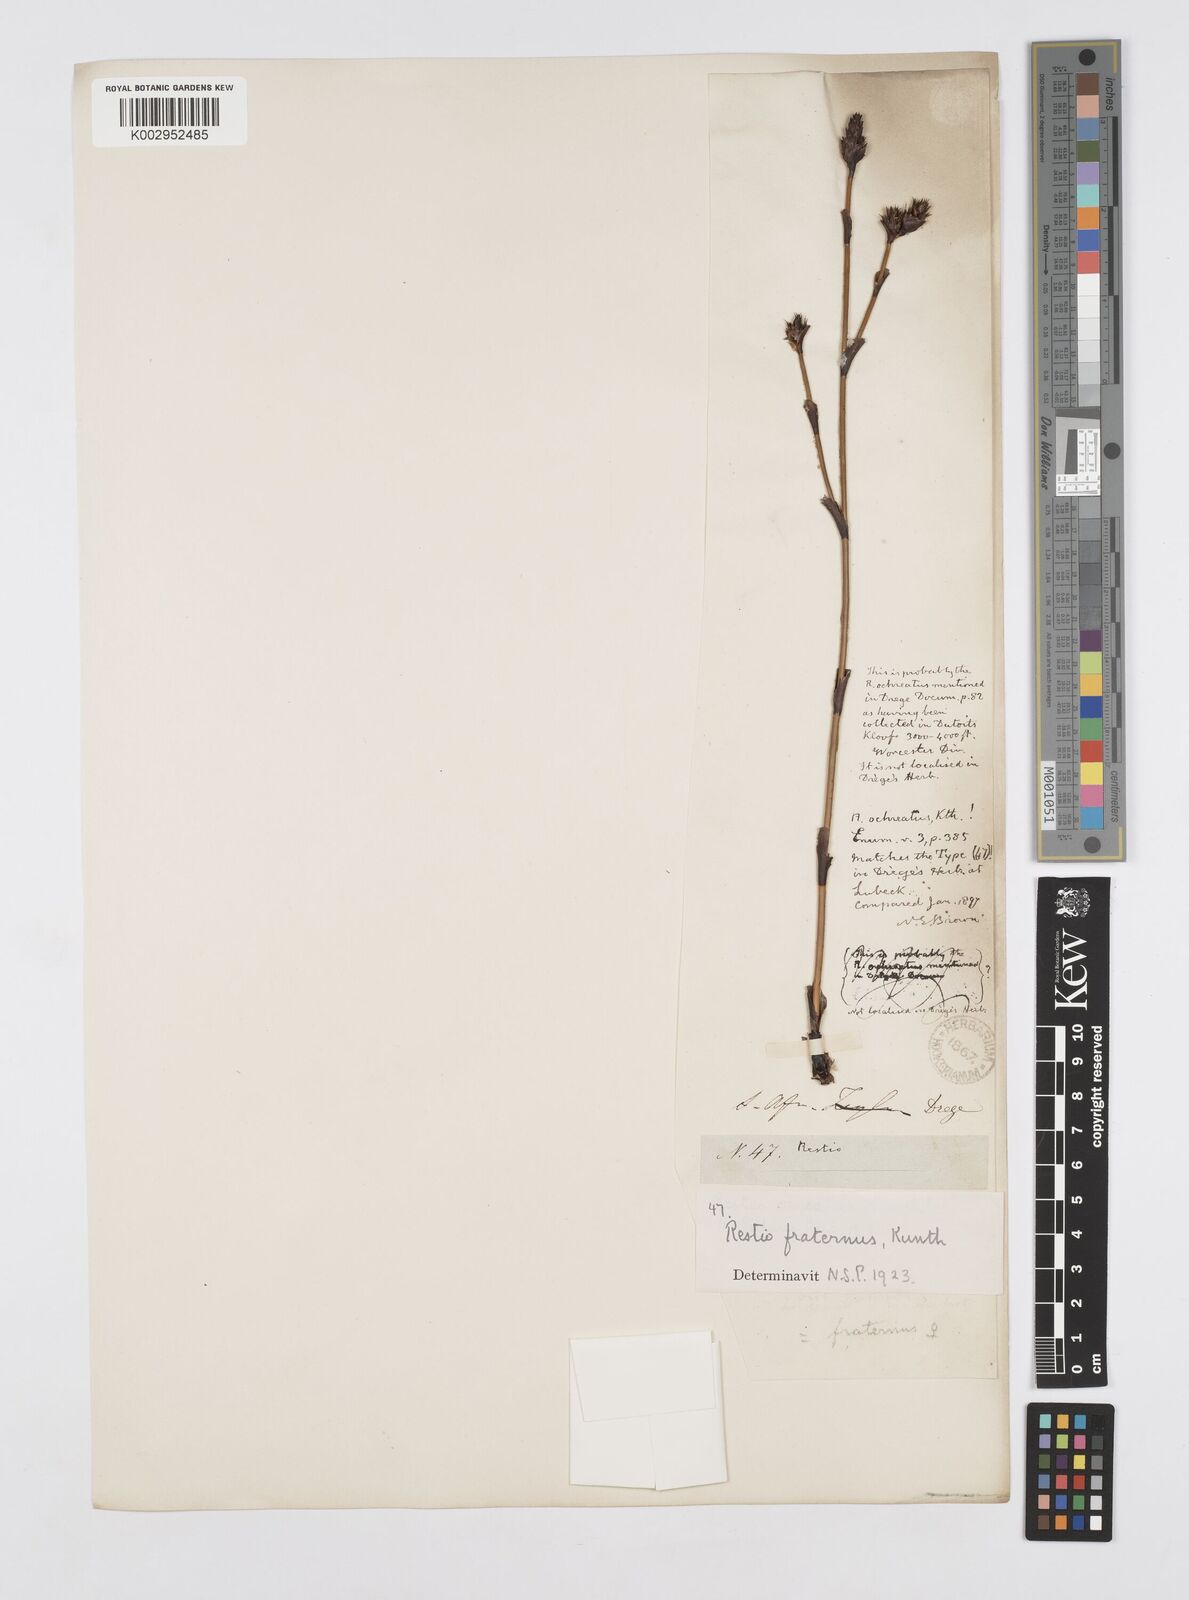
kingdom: Plantae
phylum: Tracheophyta
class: Liliopsida
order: Poales
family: Restionaceae
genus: Restio
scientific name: Restio fraternus
